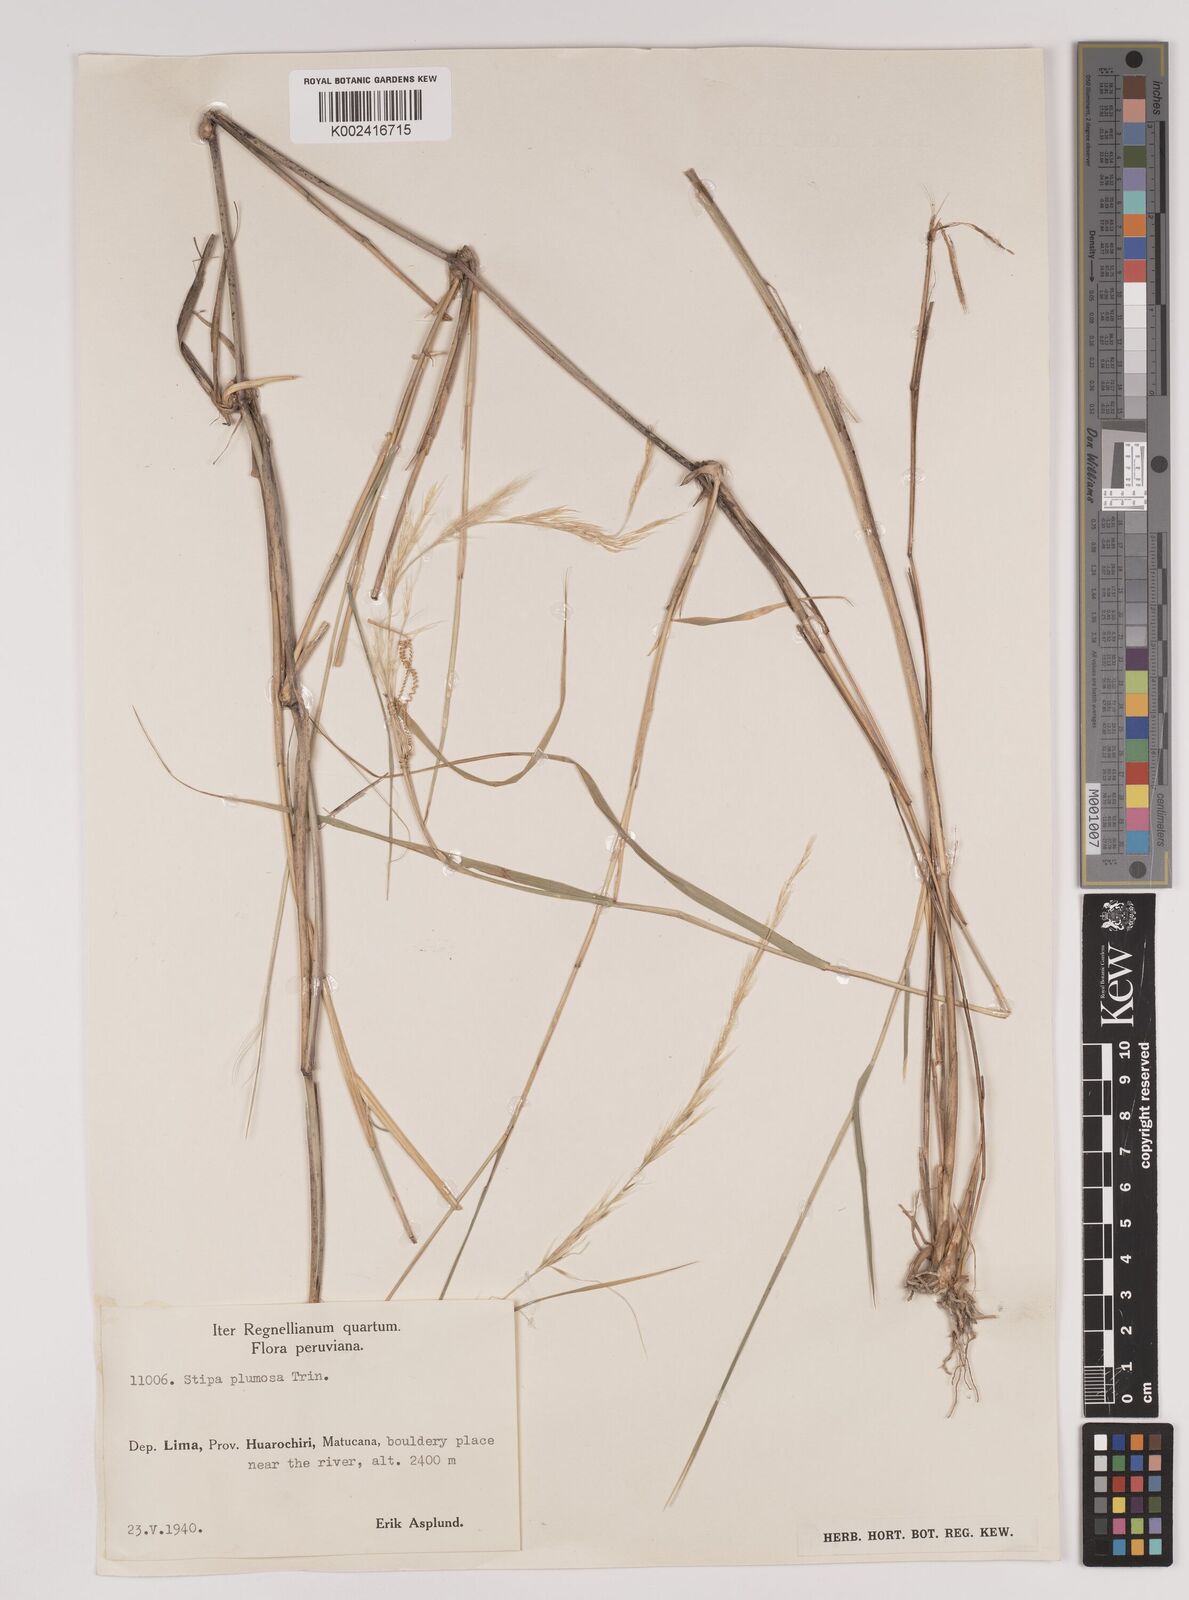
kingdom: Plantae
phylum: Tracheophyta
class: Liliopsida
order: Poales
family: Poaceae
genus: Stipa
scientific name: Stipa plumosa
